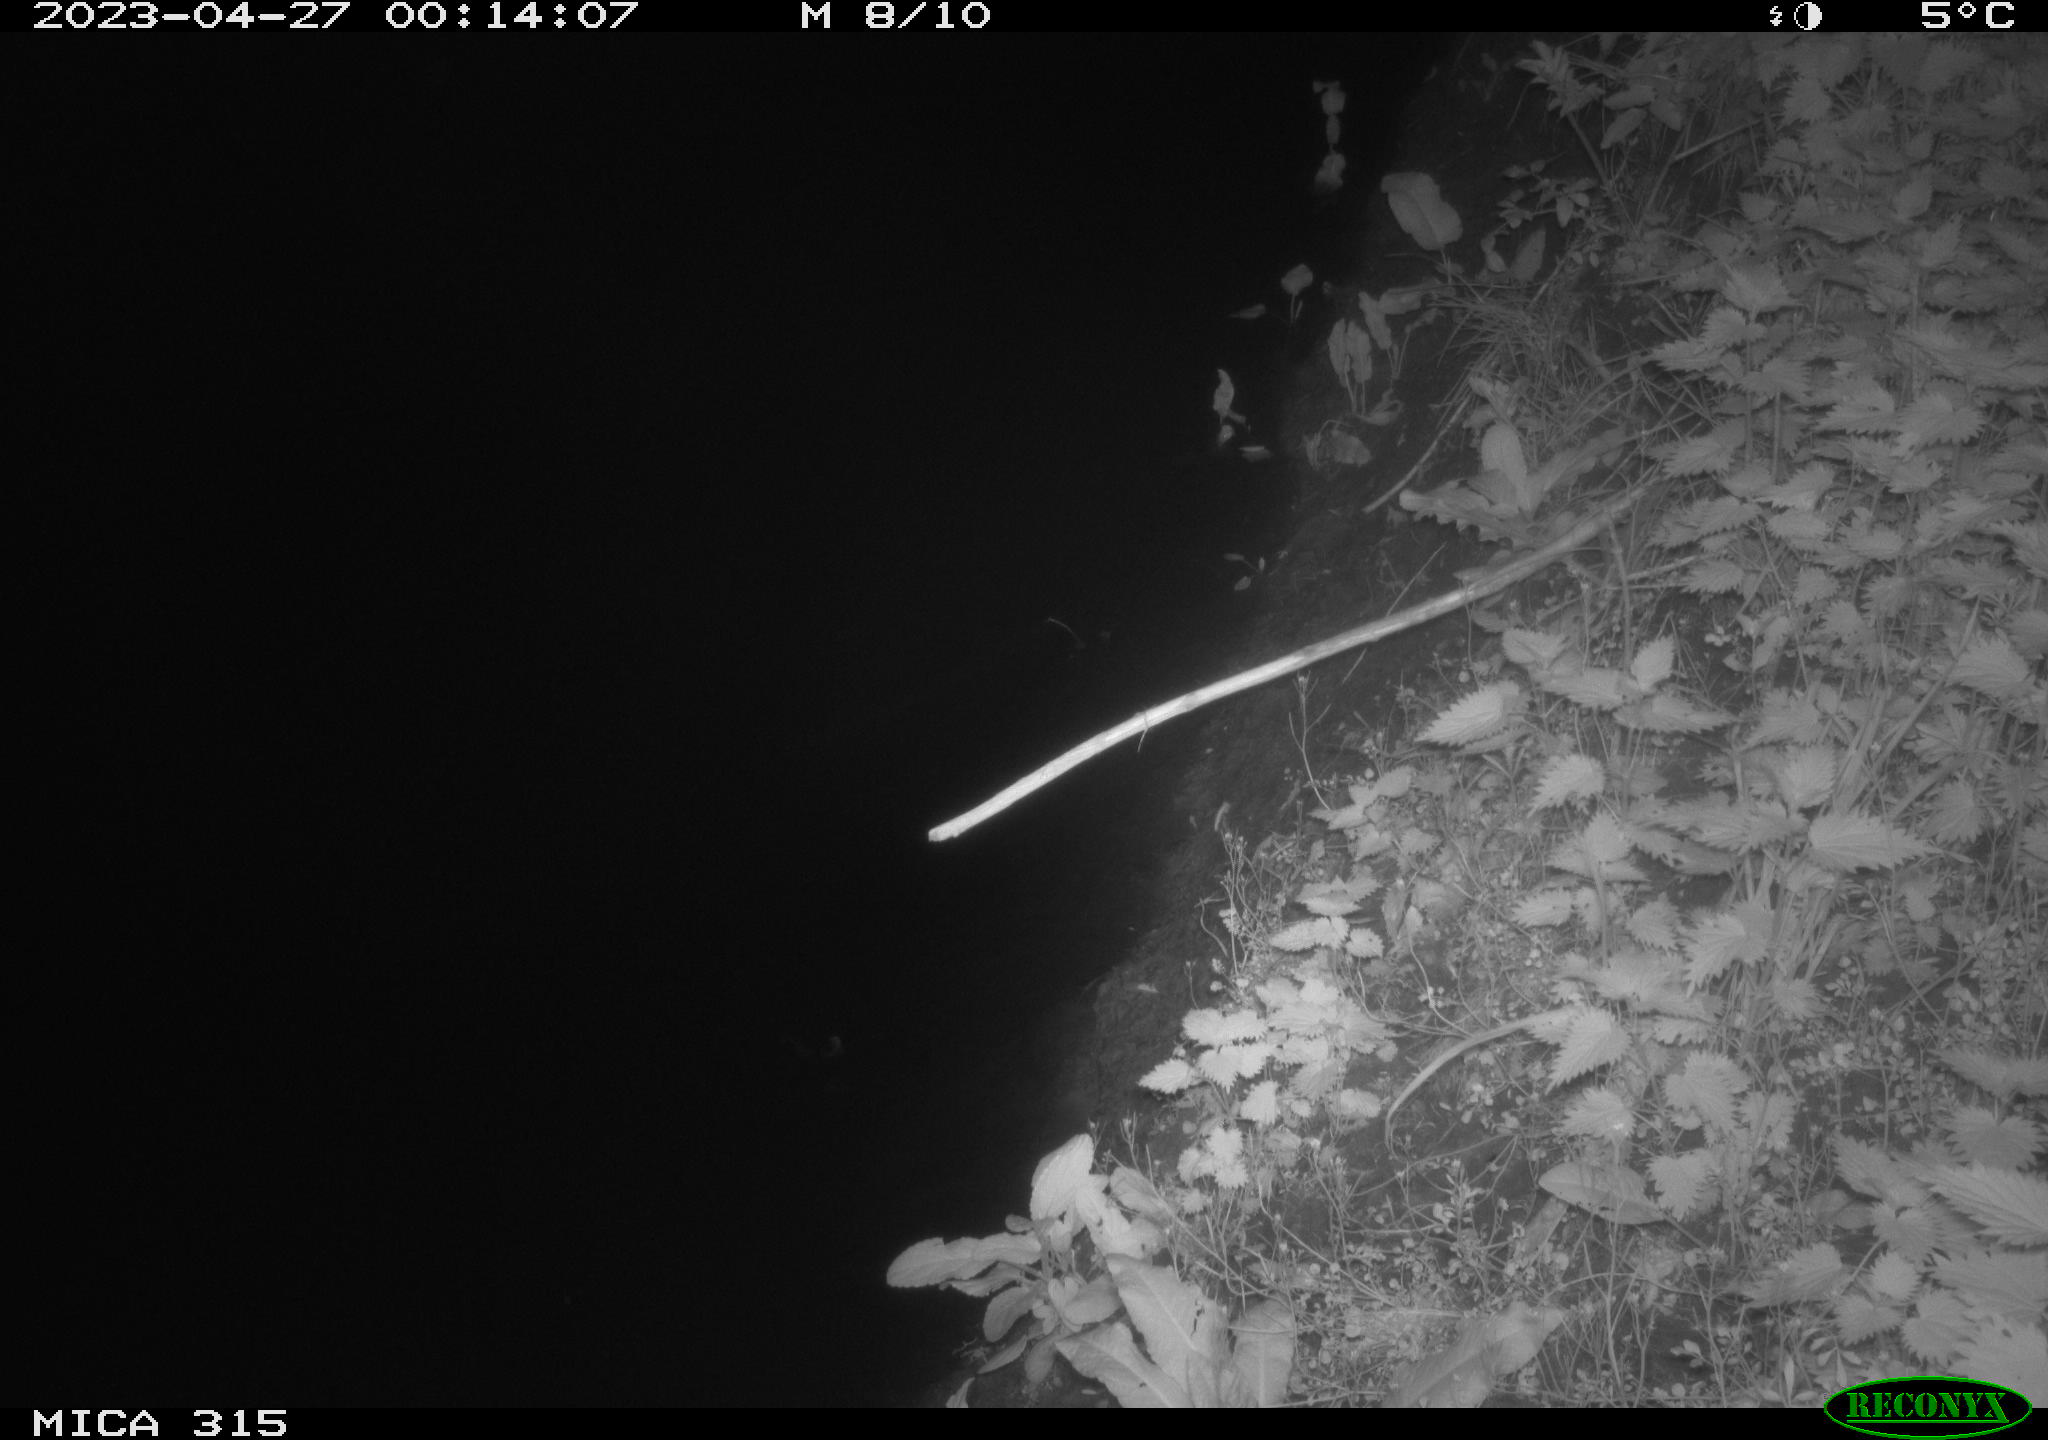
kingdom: Animalia
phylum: Chordata
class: Aves
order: Anseriformes
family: Anatidae
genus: Anas
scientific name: Anas
